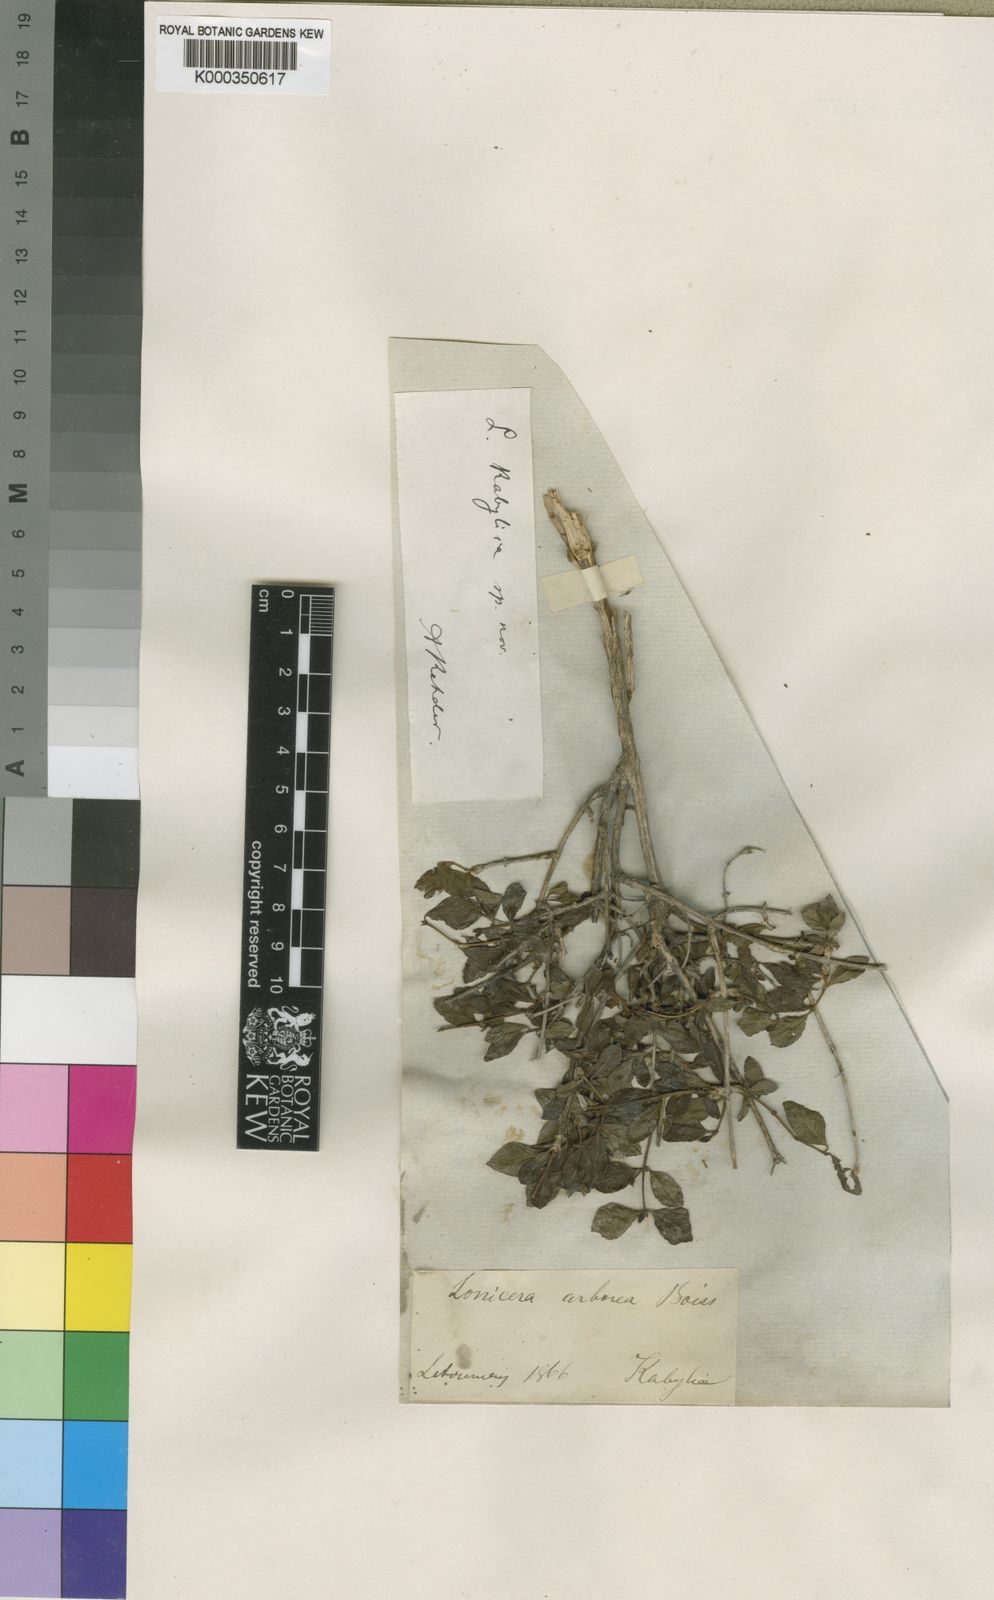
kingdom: Plantae
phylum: Tracheophyta
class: Magnoliopsida
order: Dipsacales
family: Caprifoliaceae
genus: Lonicera
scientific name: Lonicera kabylica
